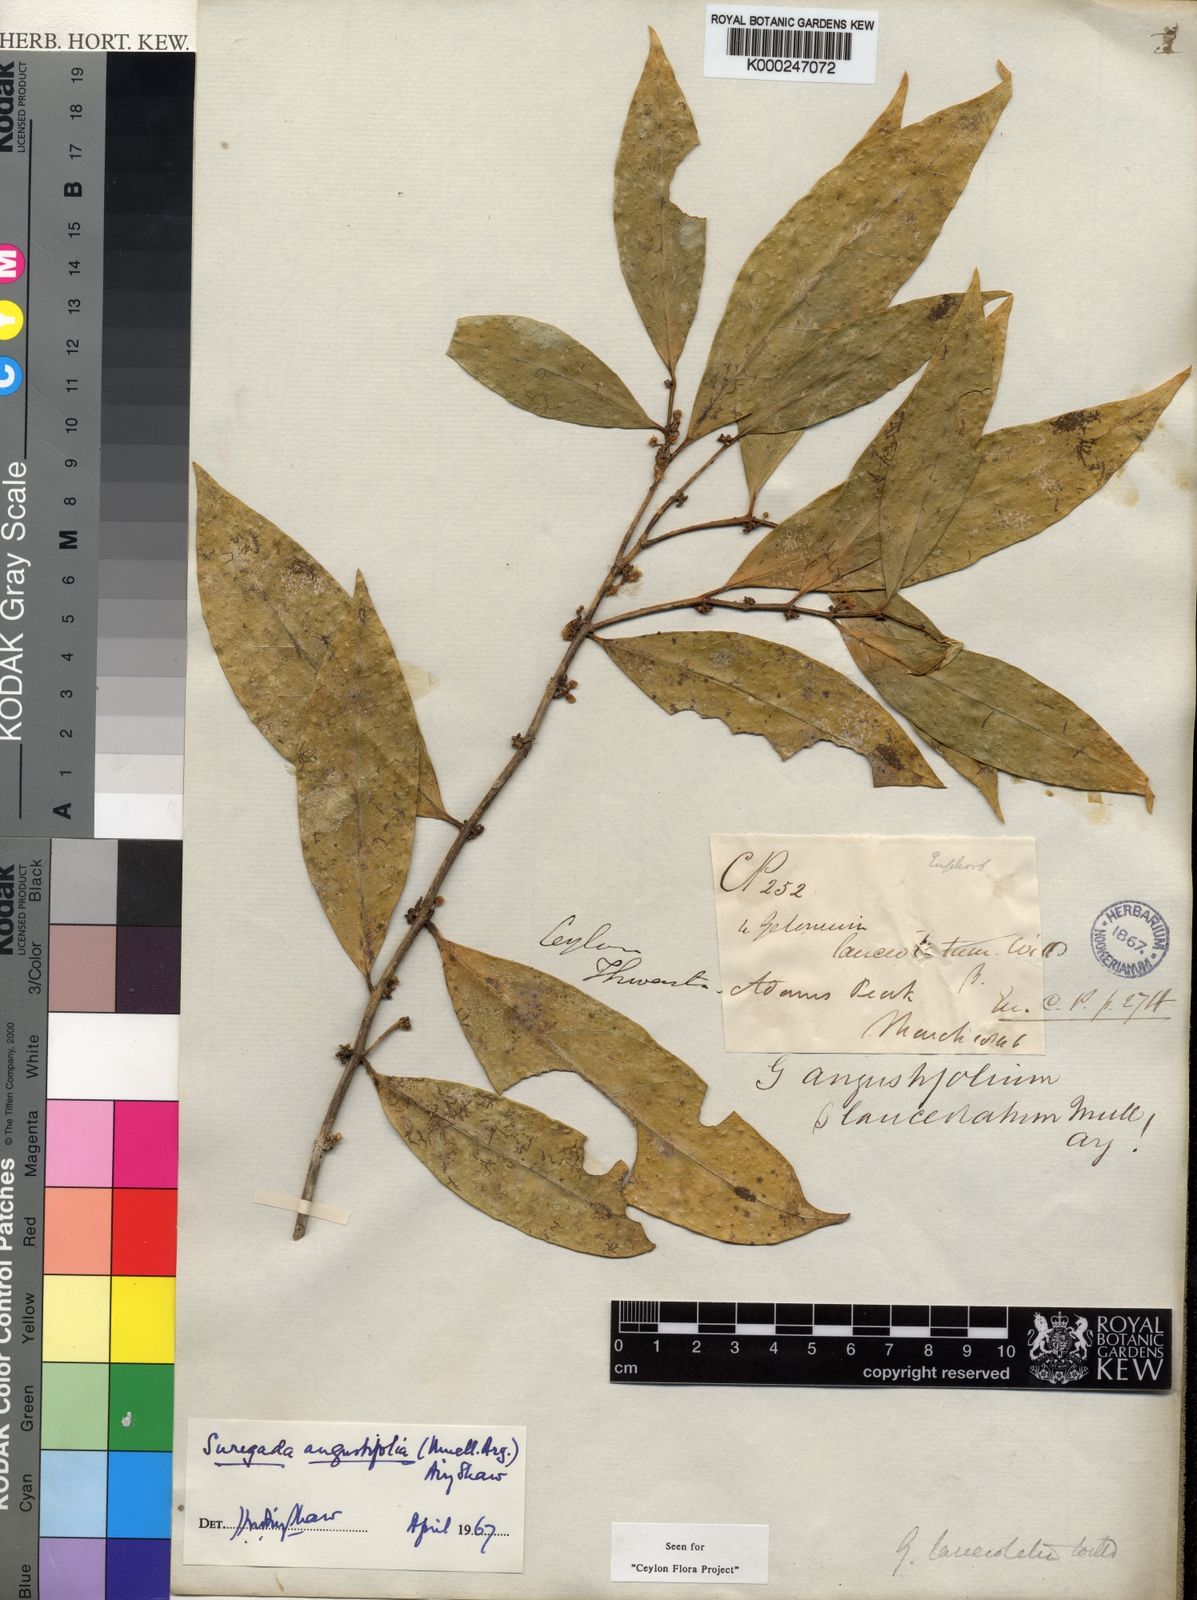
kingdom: Plantae
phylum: Tracheophyta
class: Magnoliopsida
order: Malpighiales
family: Euphorbiaceae
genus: Suregada
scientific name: Suregada
